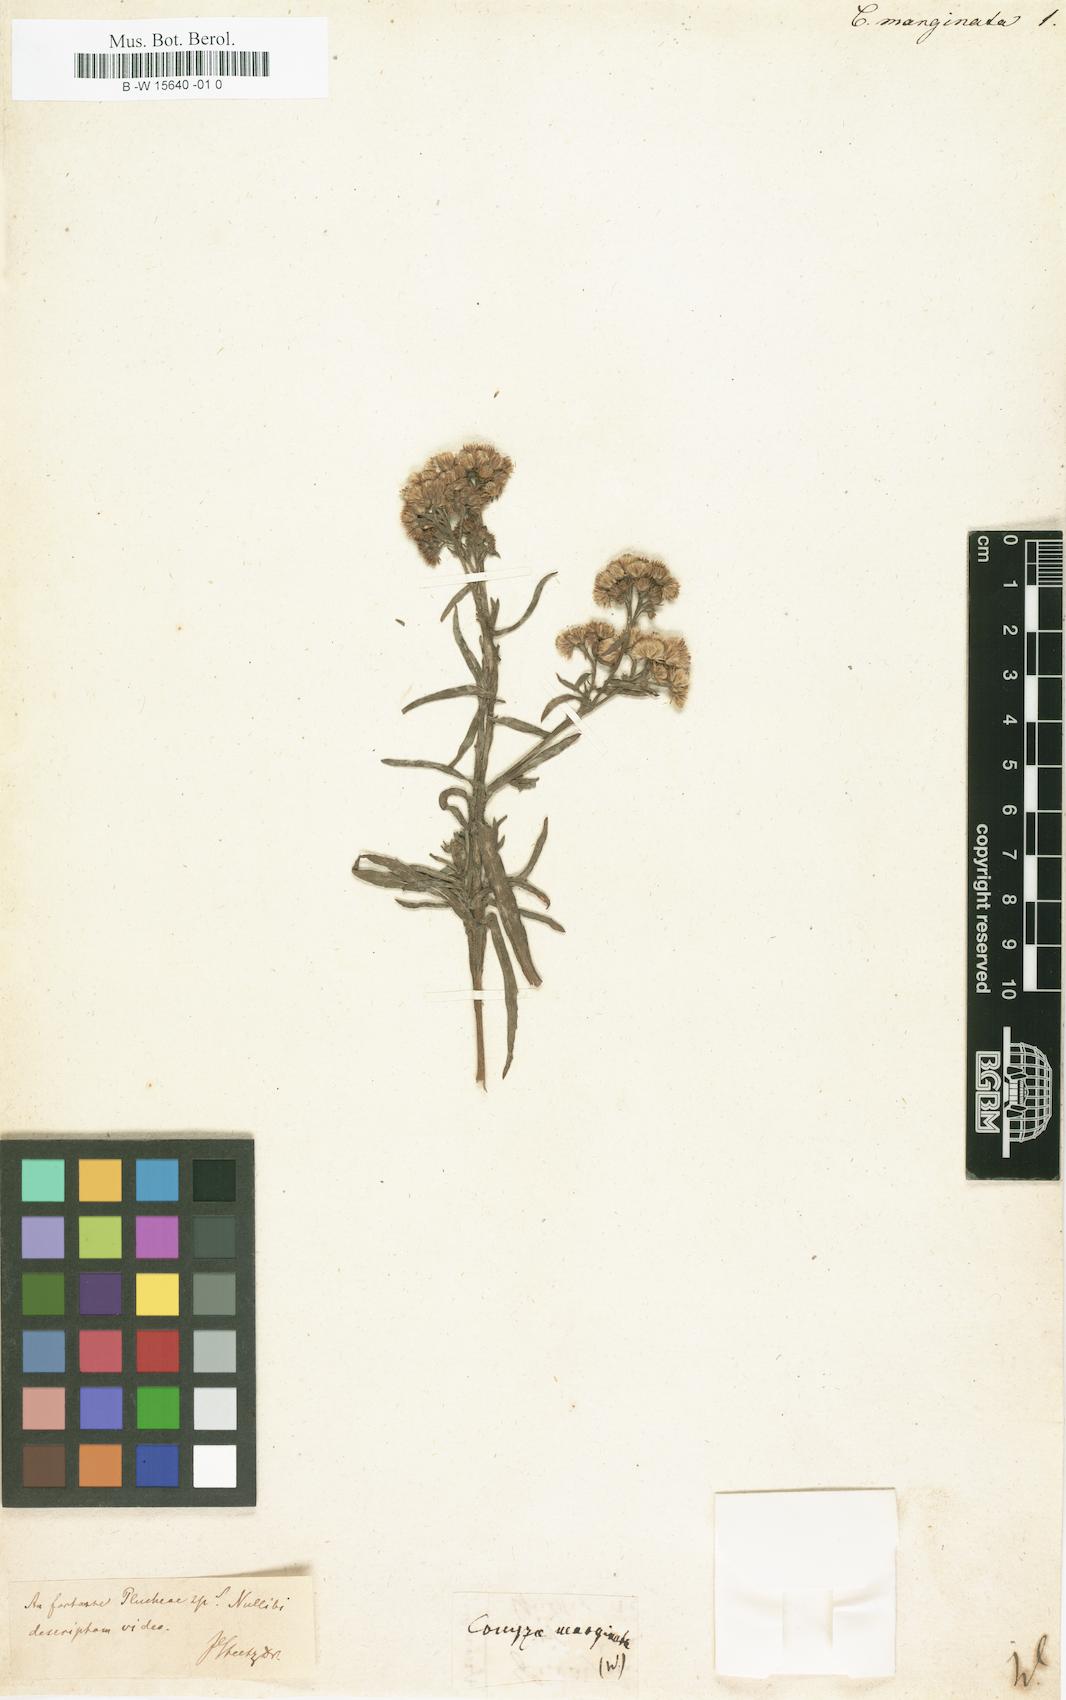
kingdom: Plantae
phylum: Tracheophyta
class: Magnoliopsida
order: Asterales
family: Asteraceae
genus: Eschenbachia
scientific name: Eschenbachia rufa
